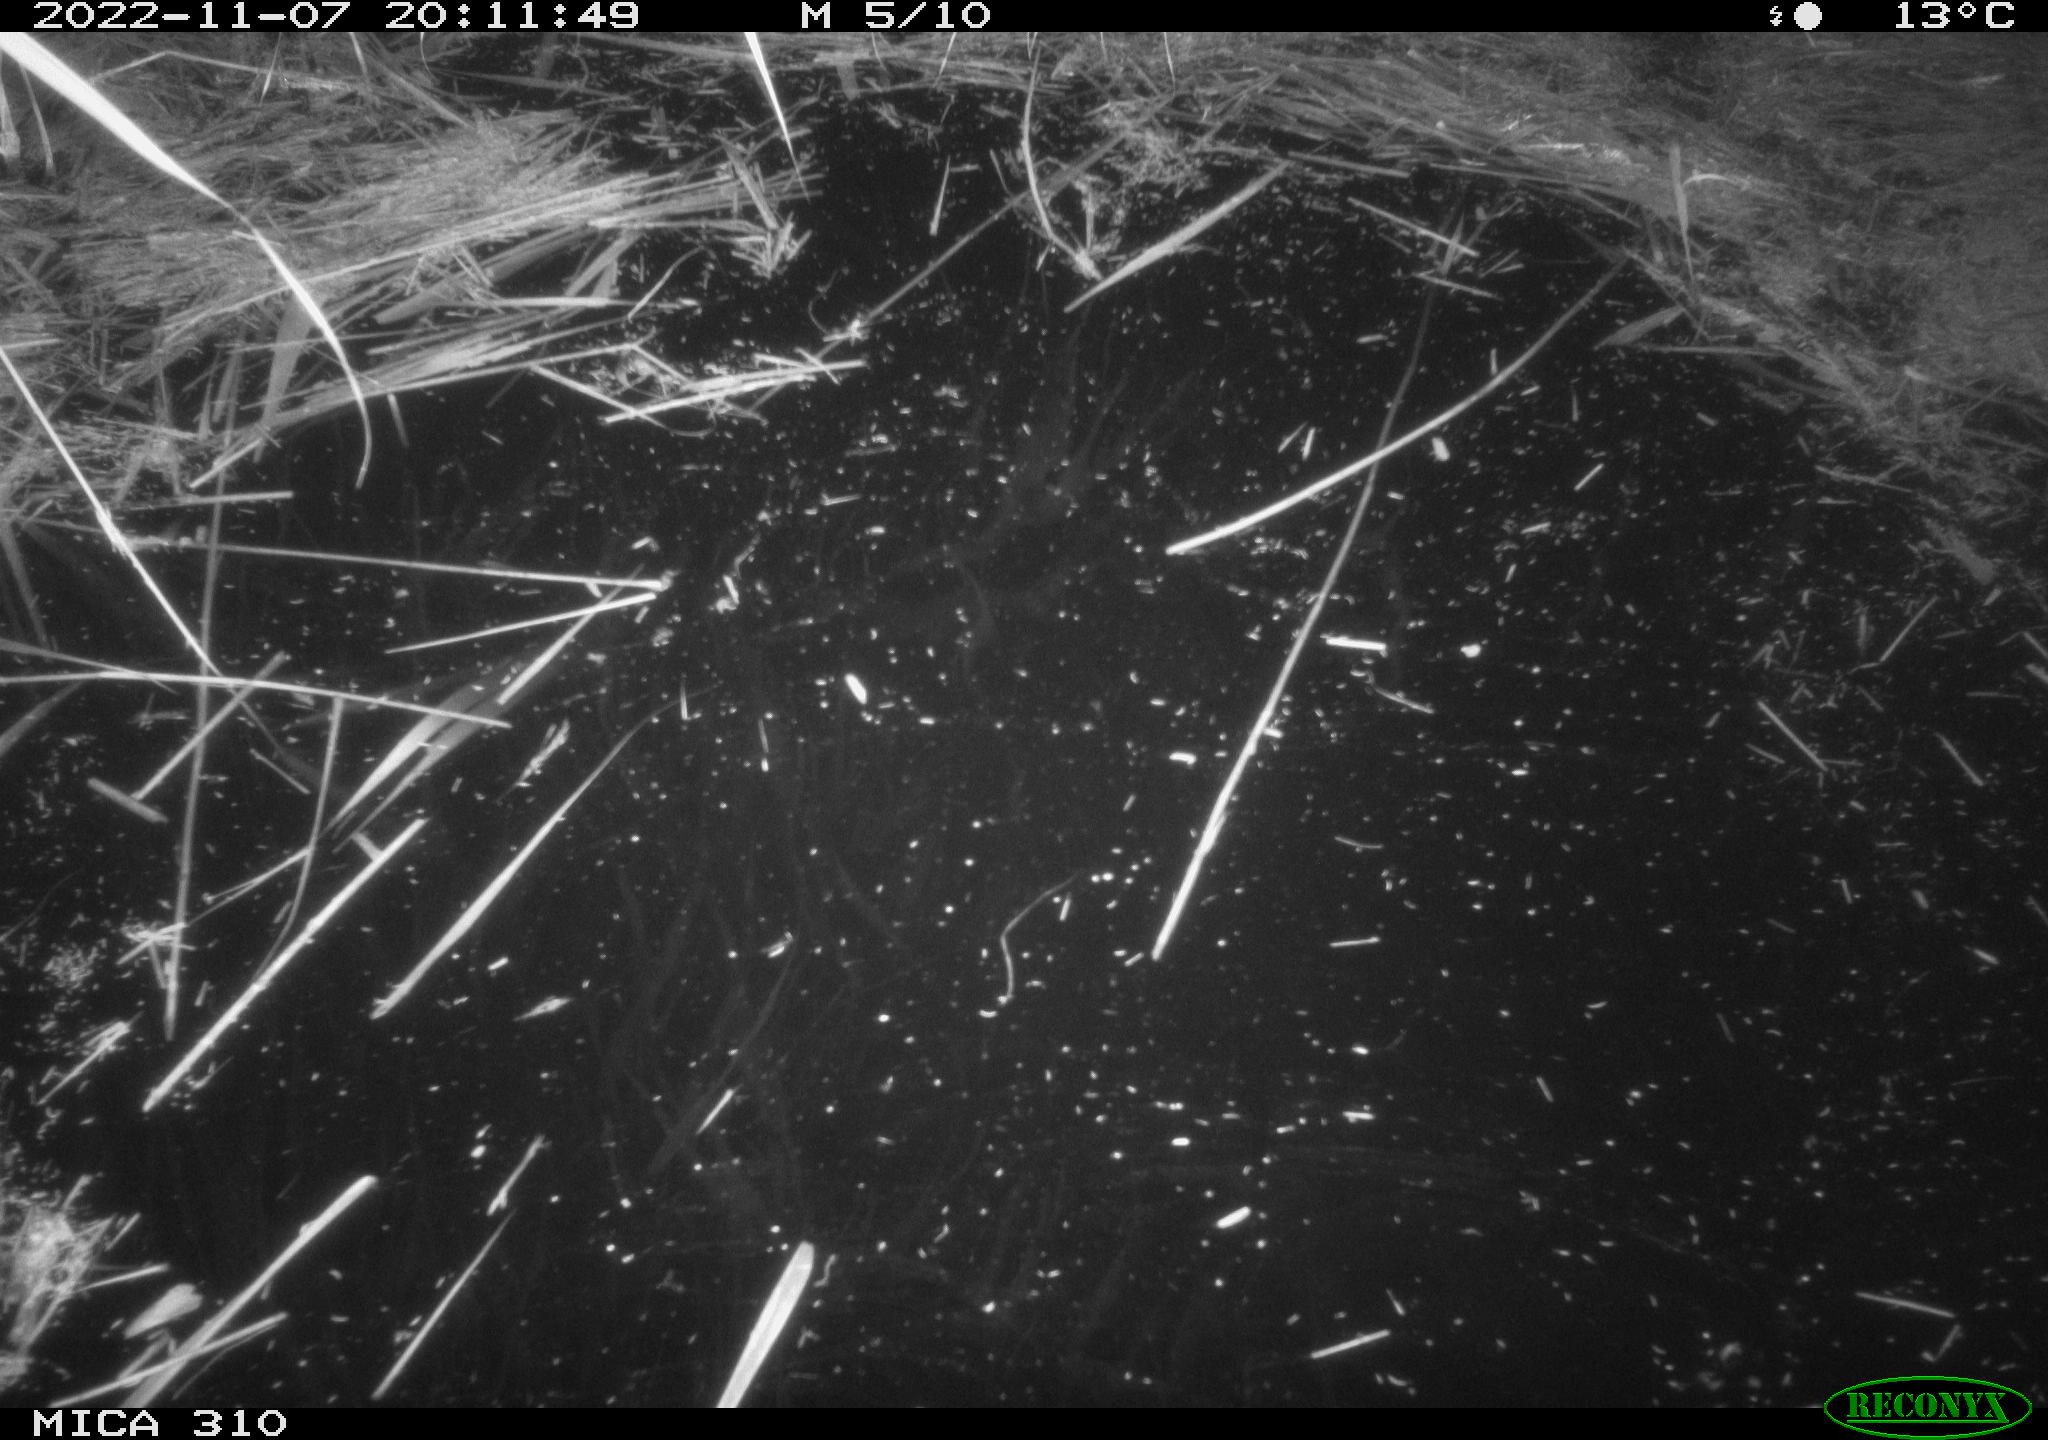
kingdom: Animalia
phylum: Chordata
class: Mammalia
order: Rodentia
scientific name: Rodentia
